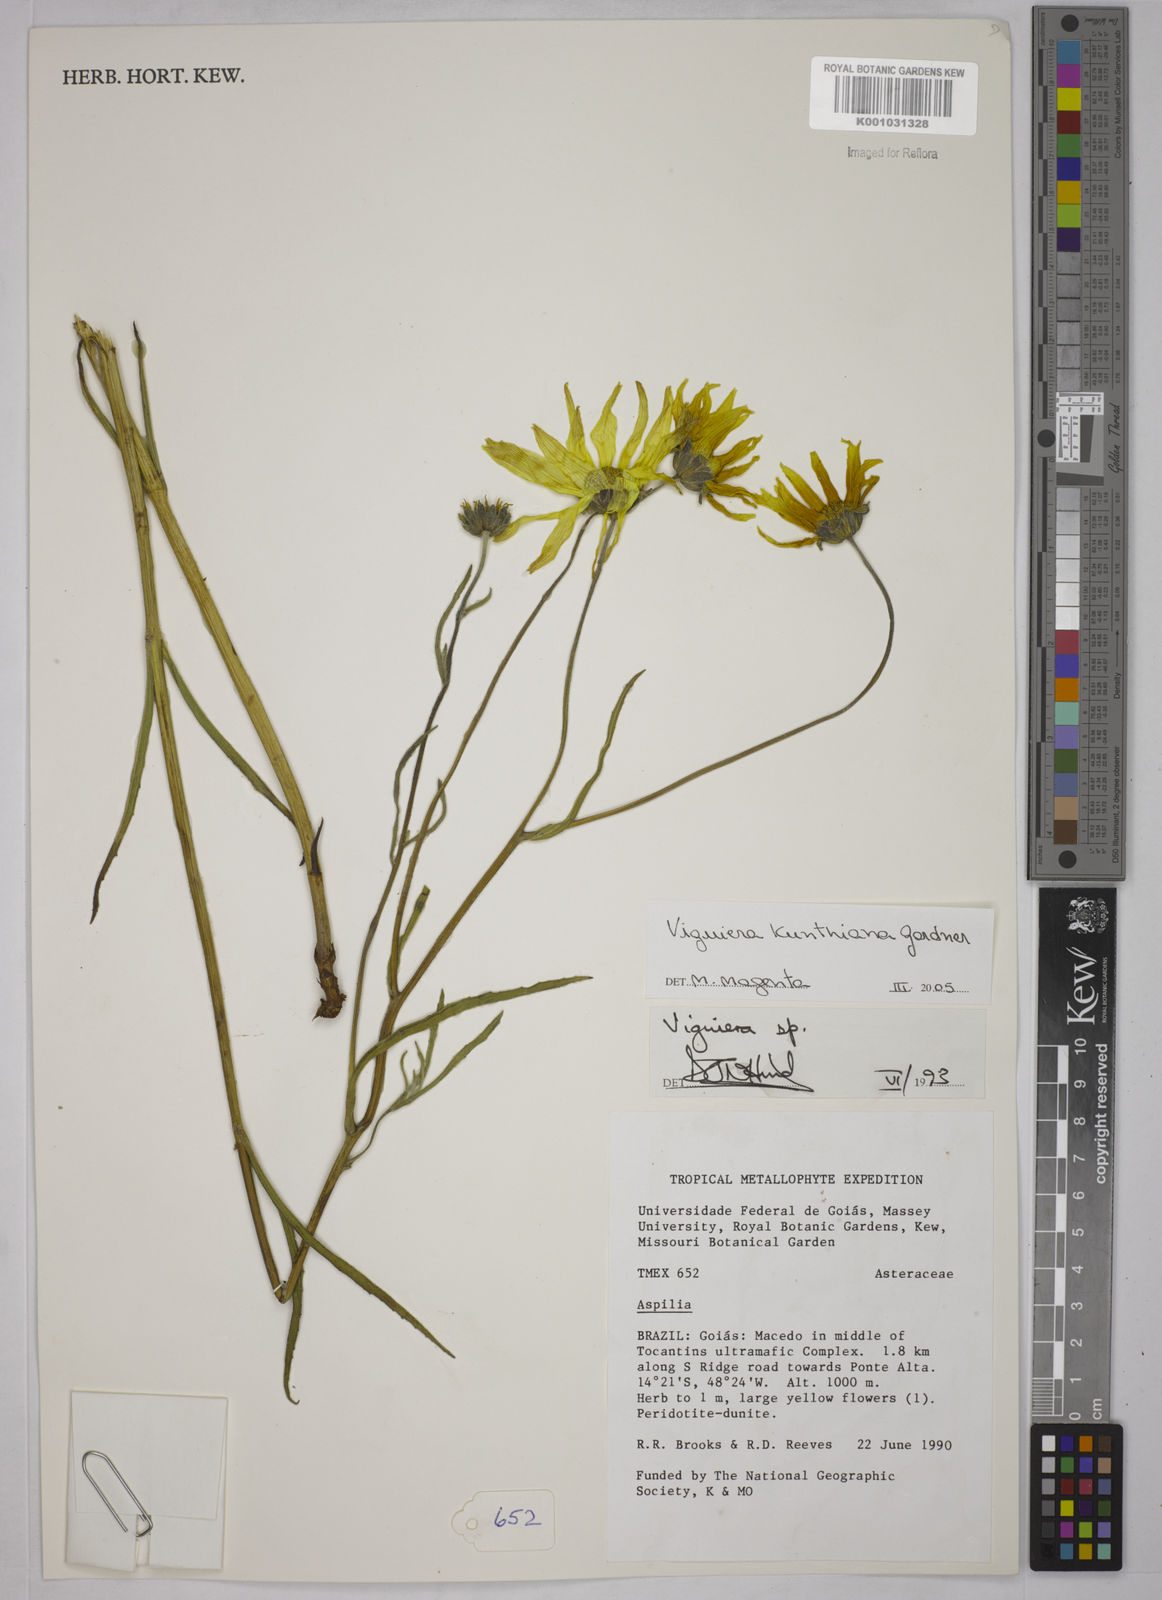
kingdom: Plantae
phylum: Tracheophyta
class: Magnoliopsida
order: Asterales
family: Asteraceae
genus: Aldama
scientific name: Aldama kunthiana
